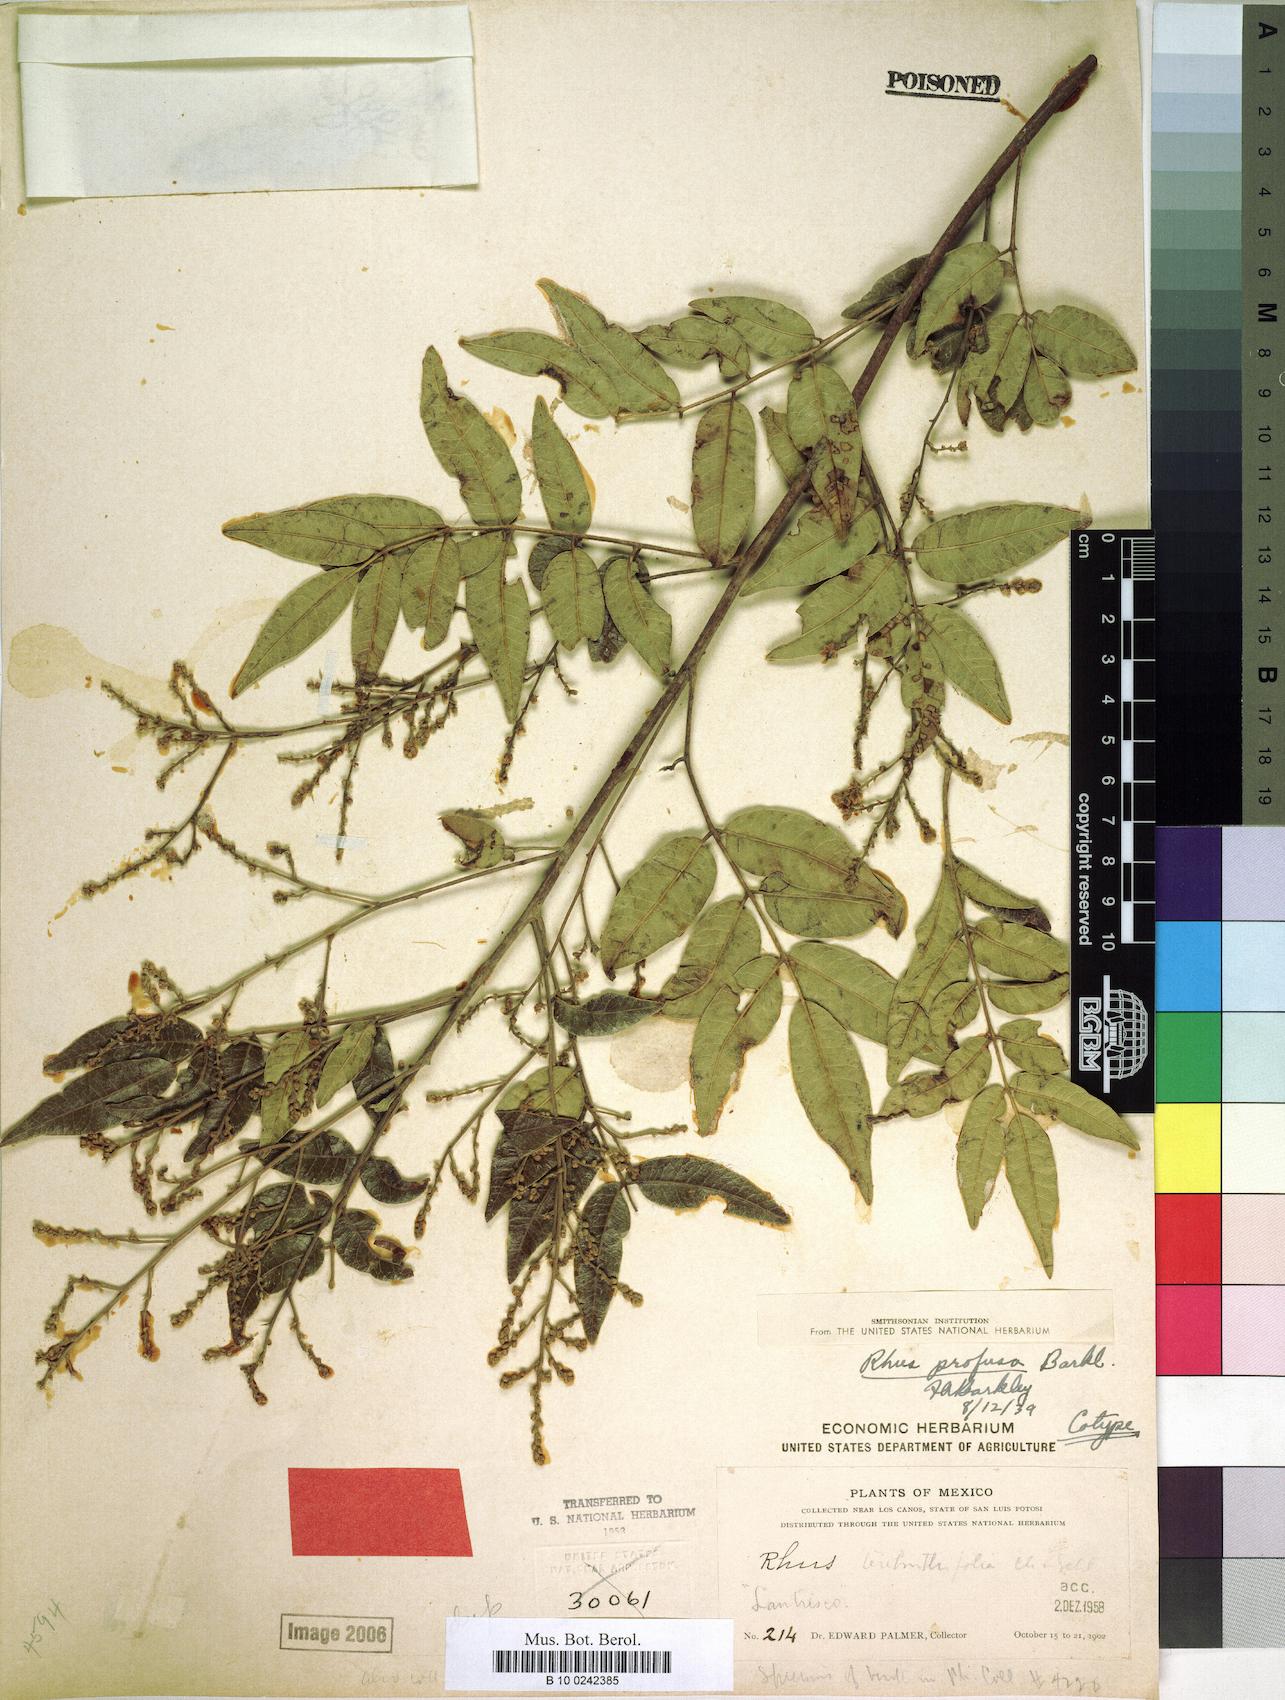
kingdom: Plantae
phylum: Tracheophyta
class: Magnoliopsida
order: Sapindales
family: Anacardiaceae
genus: Rhus
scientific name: Rhus schiedeana
